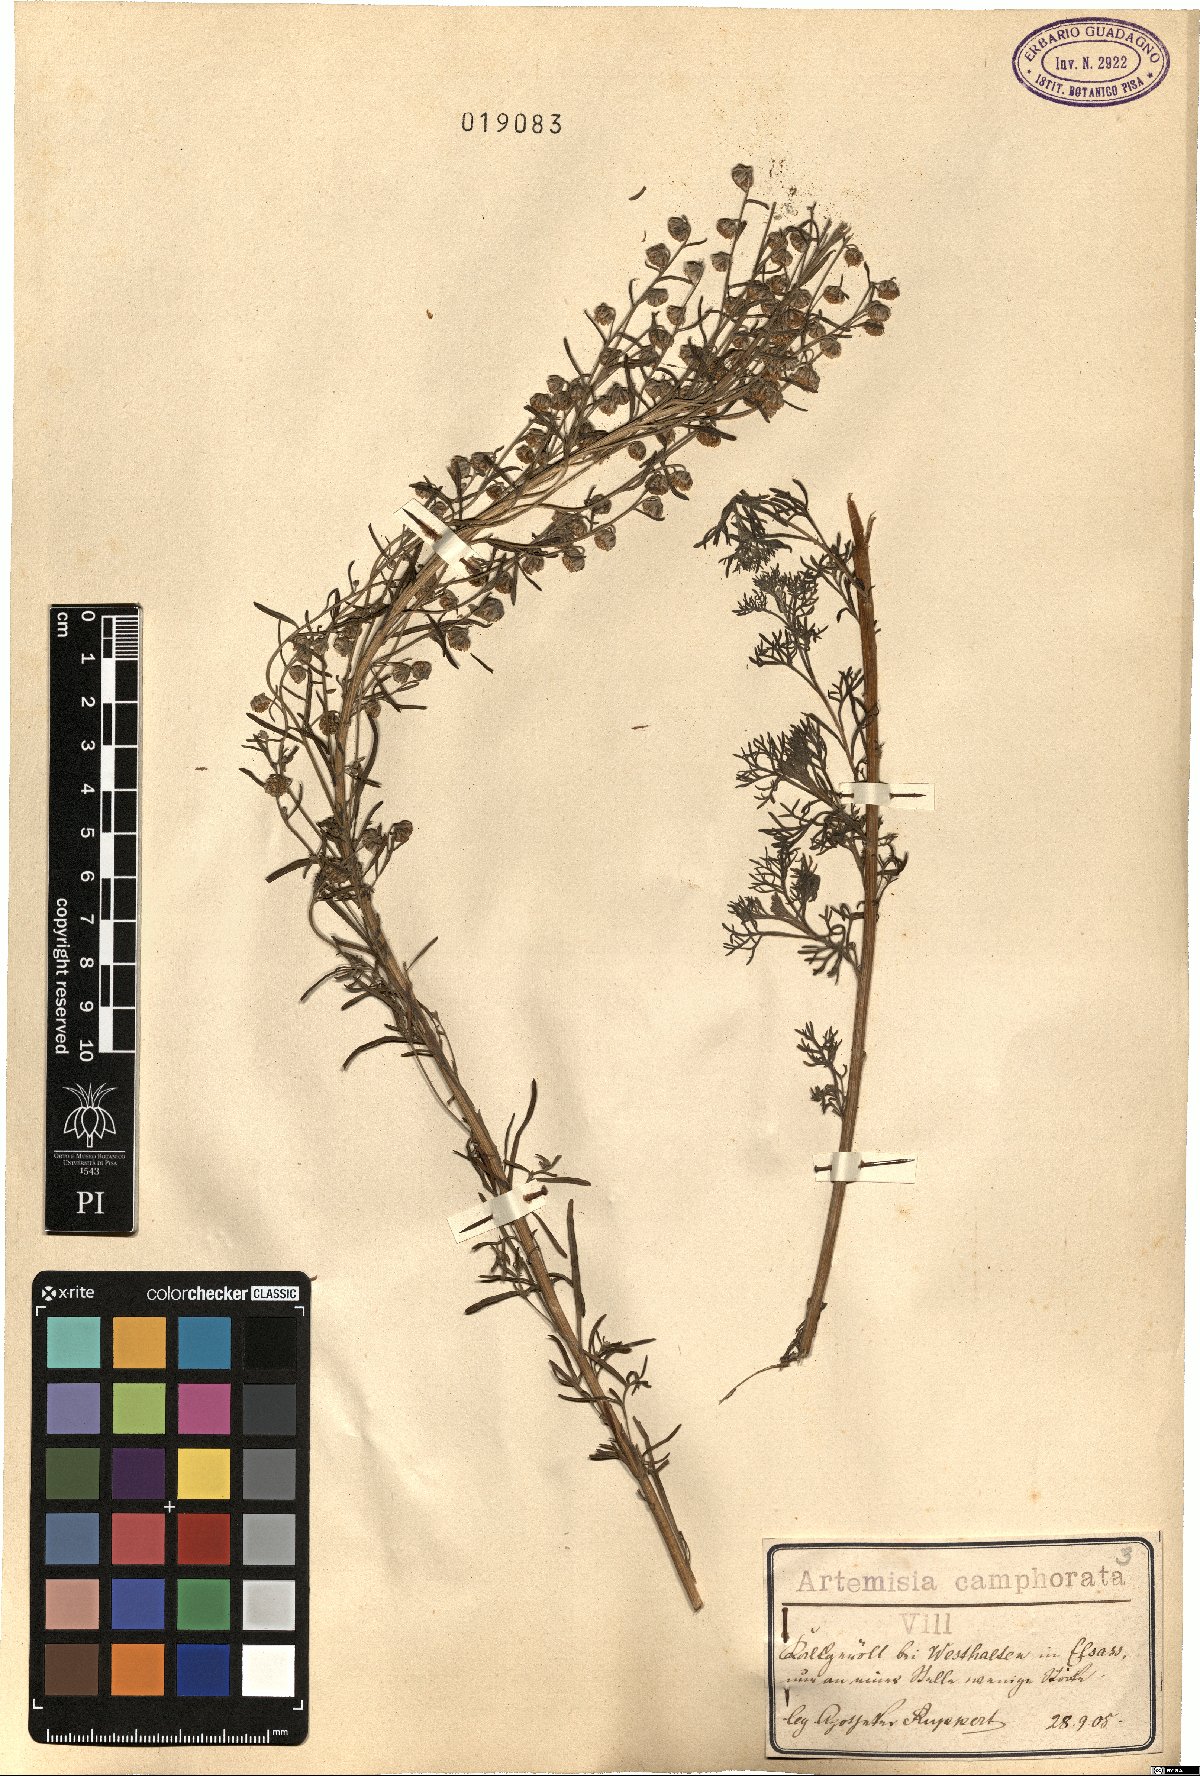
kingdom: Plantae
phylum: Tracheophyta
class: Magnoliopsida
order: Asterales
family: Asteraceae
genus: Artemisia
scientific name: Artemisia alba
